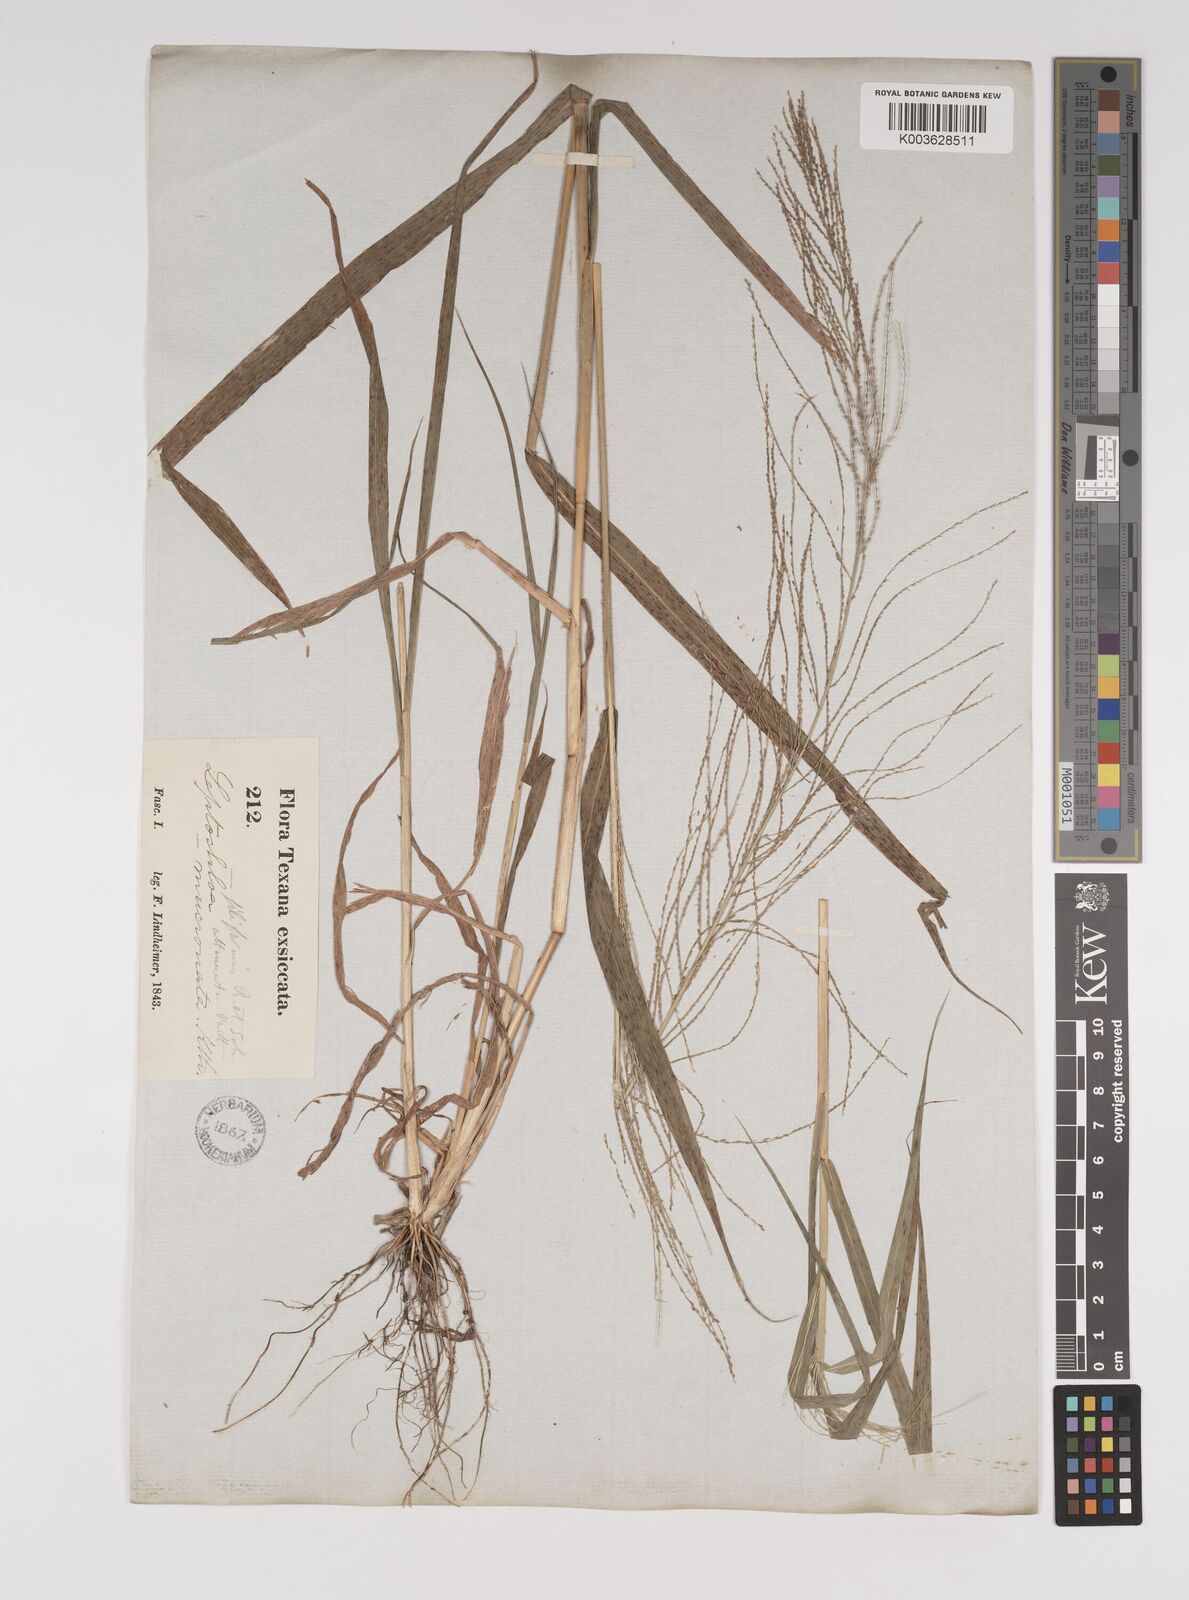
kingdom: Plantae
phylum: Tracheophyta
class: Liliopsida
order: Poales
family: Poaceae
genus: Leptochloa
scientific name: Leptochloa panicea
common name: Mucronate sprangletop
